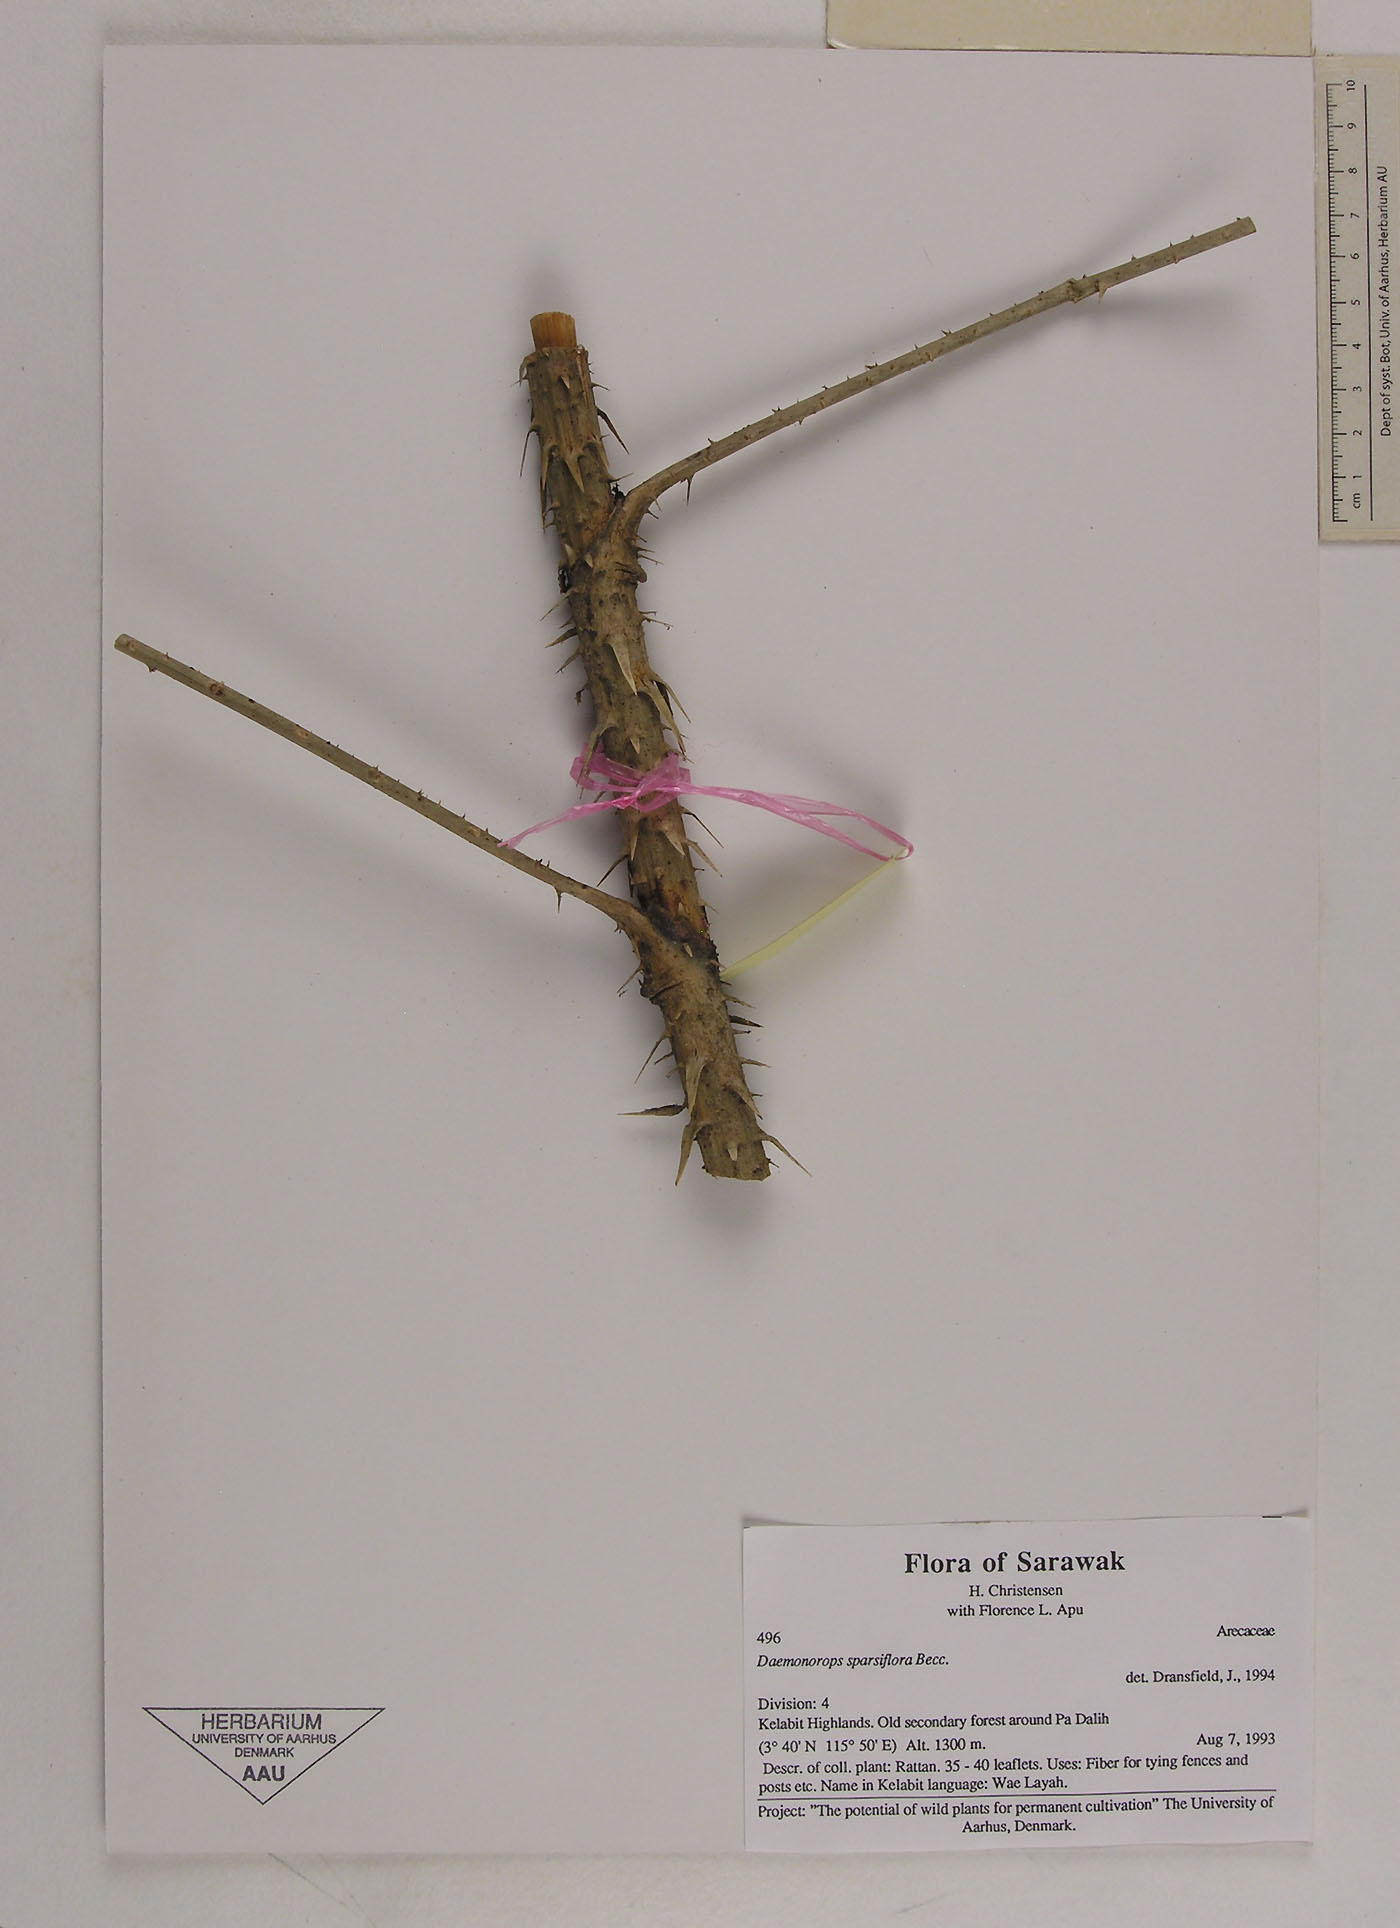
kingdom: Plantae
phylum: Tracheophyta
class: Liliopsida
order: Arecales
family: Arecaceae
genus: Calamus
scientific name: Calamus sparsiflorus
